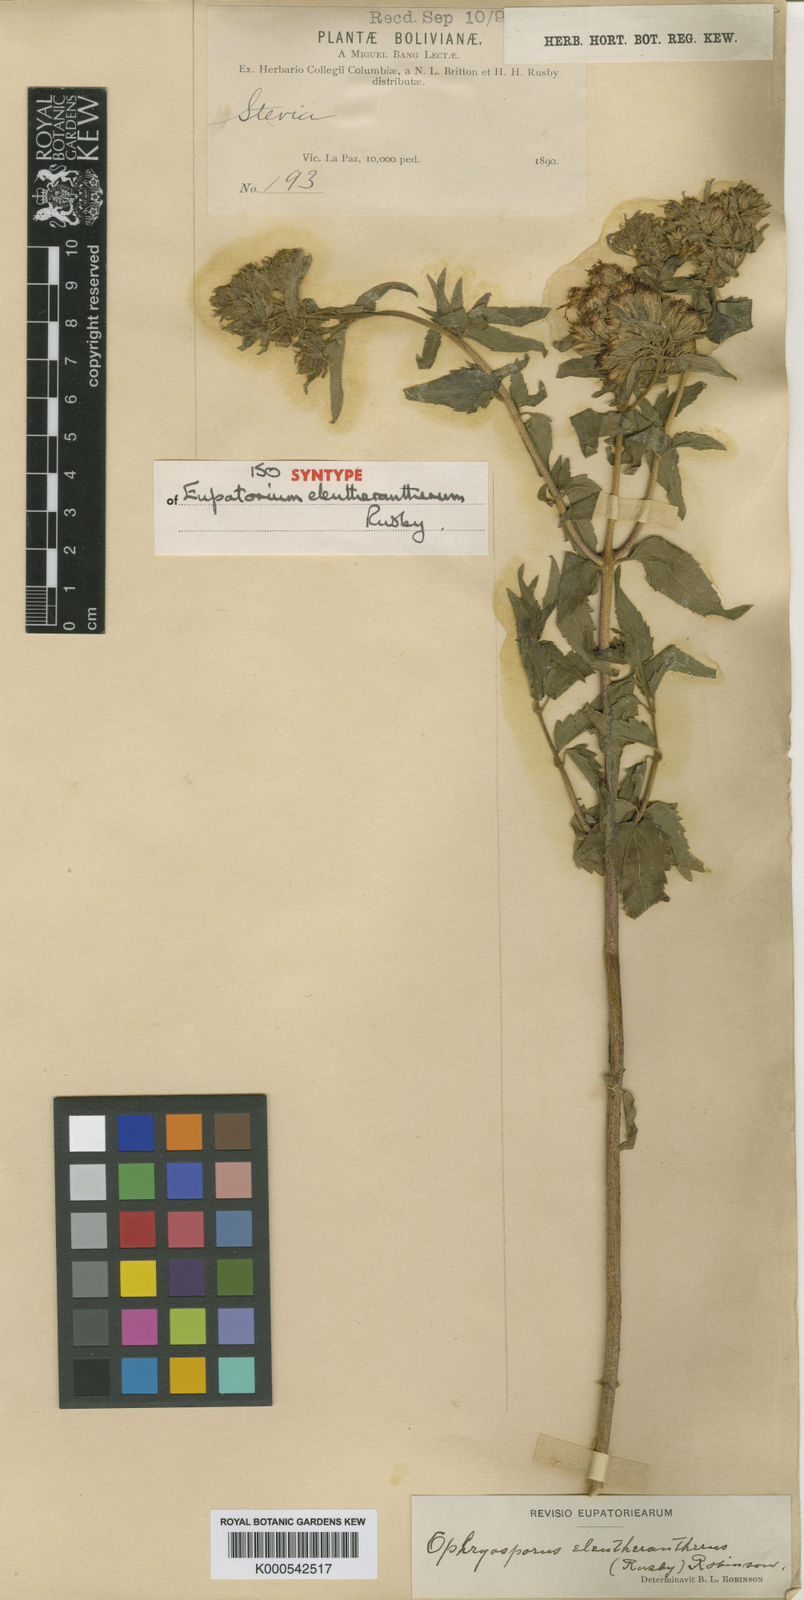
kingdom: Plantae
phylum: Tracheophyta
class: Magnoliopsida
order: Asterales
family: Asteraceae
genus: Ophryosporus
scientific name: Ophryosporus eleutherantherus
